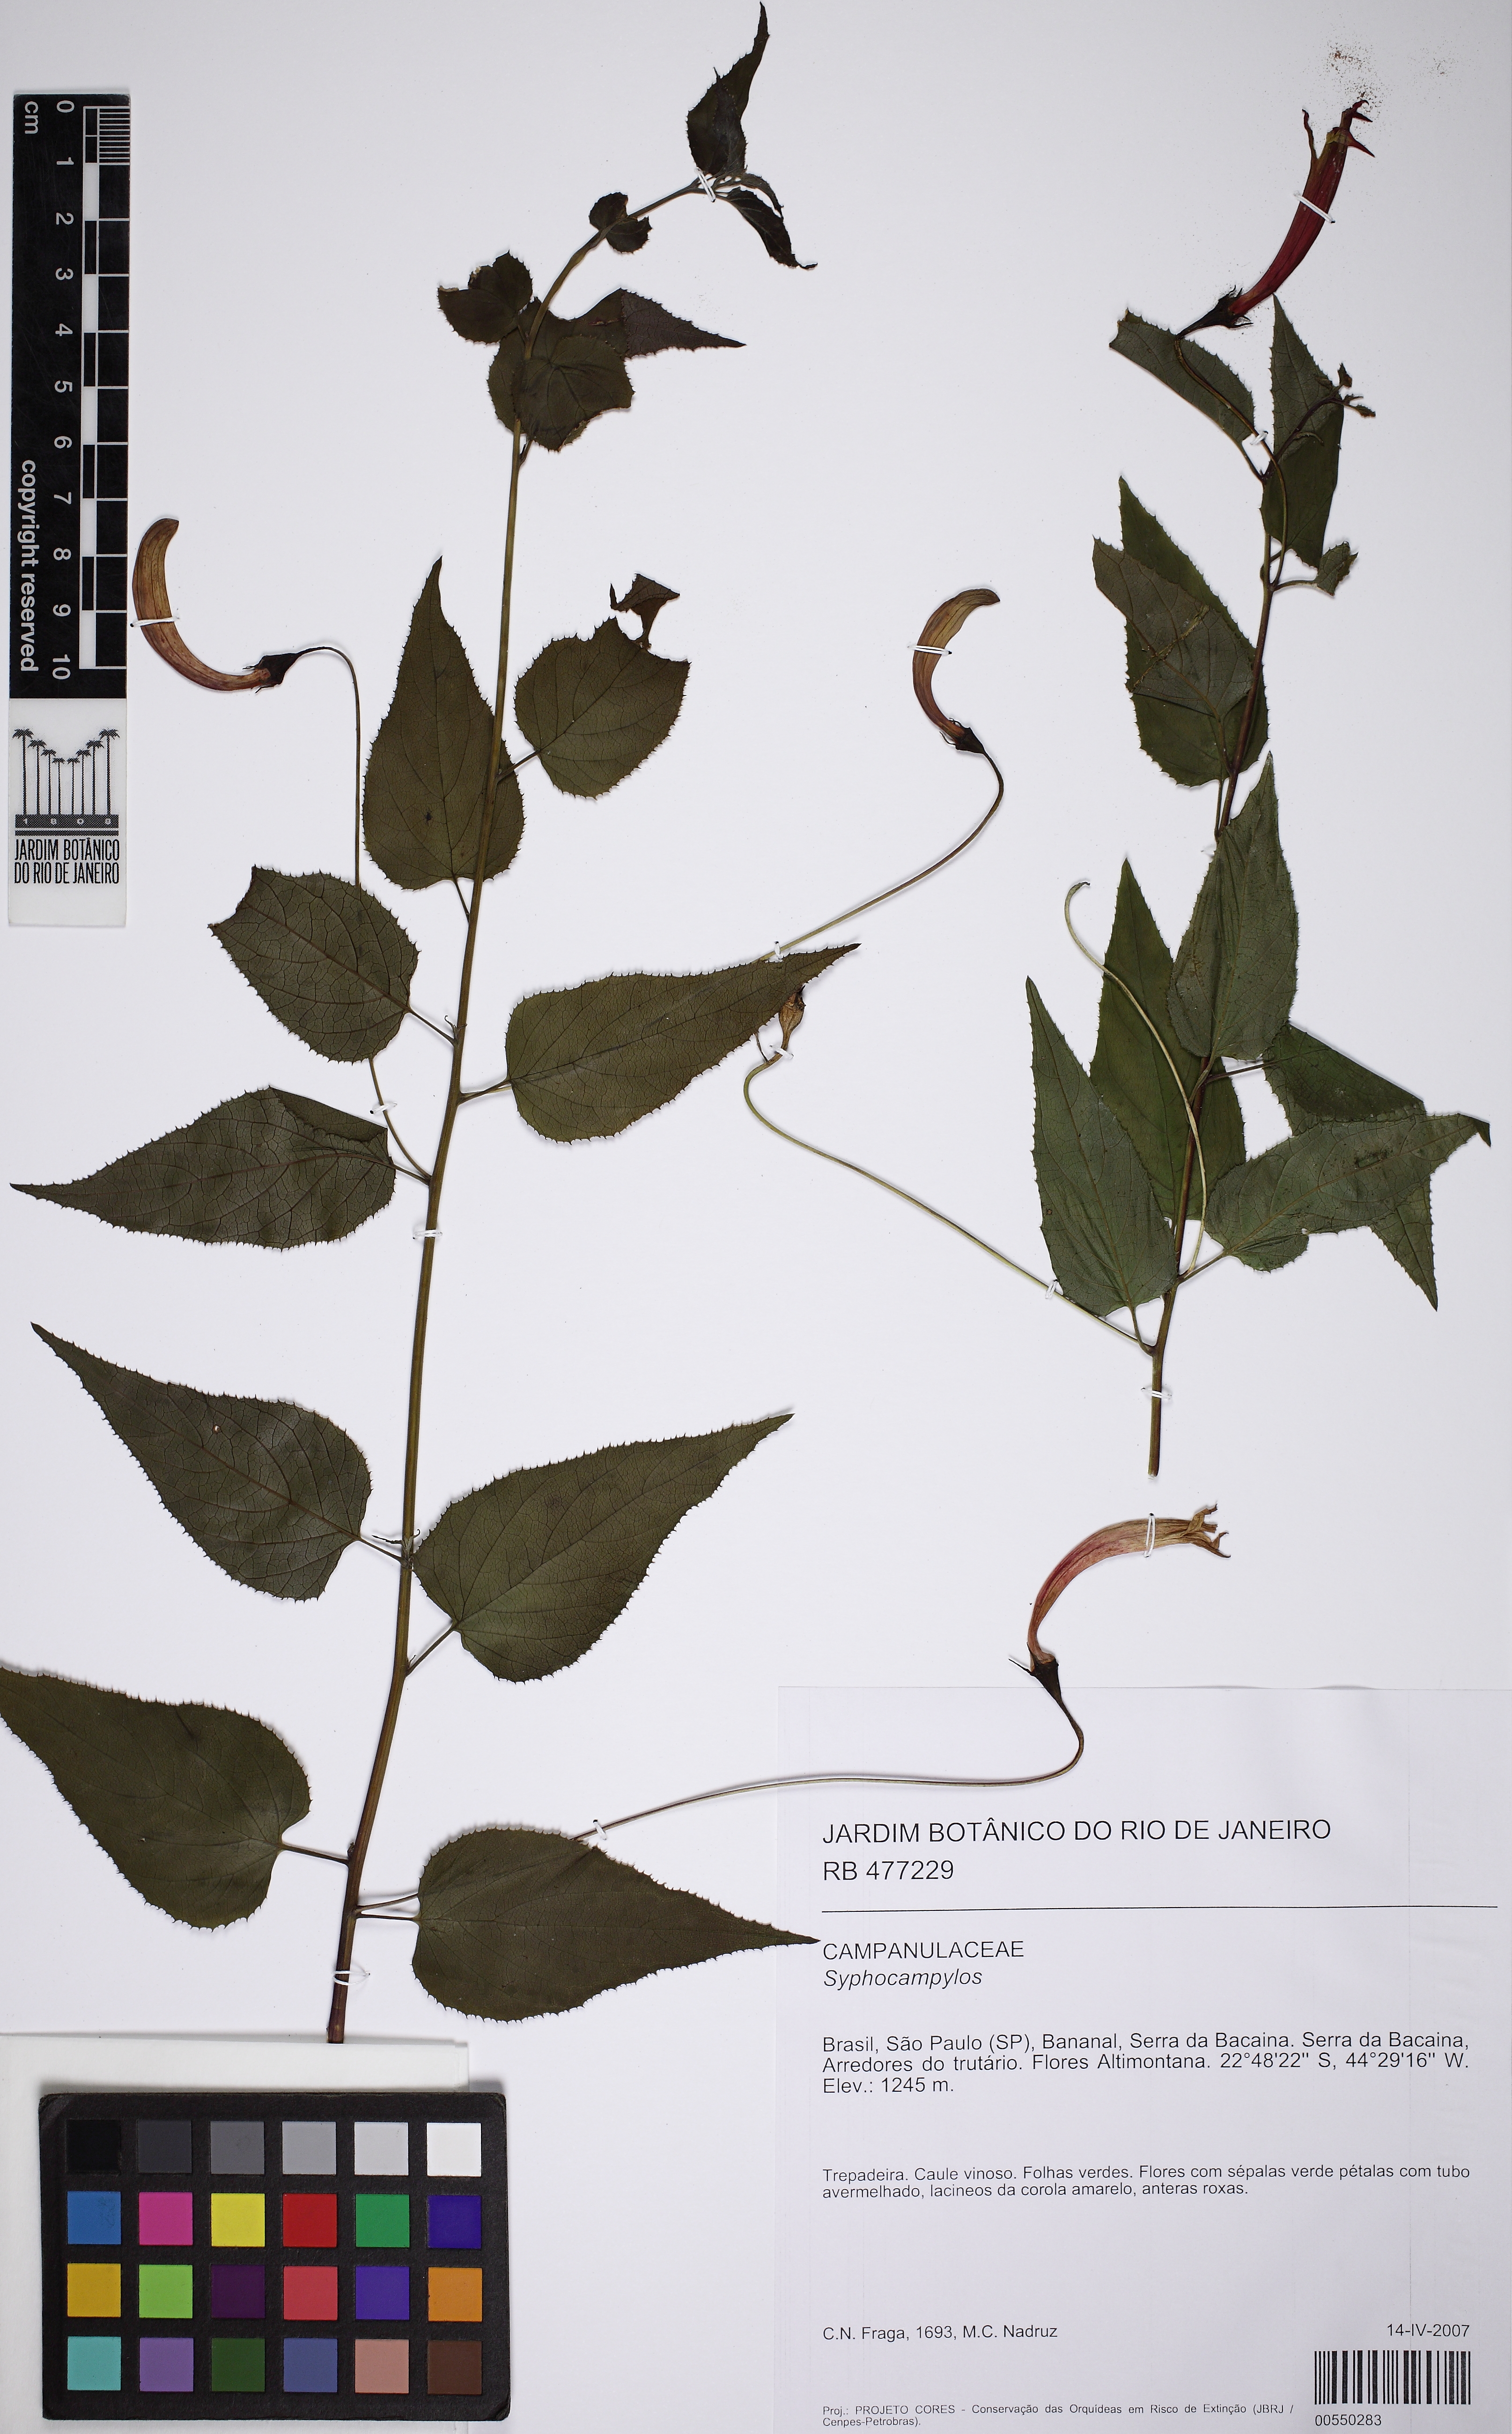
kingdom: Plantae
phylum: Tracheophyta
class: Magnoliopsida
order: Asterales
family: Campanulaceae
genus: Siphocampylus
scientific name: Siphocampylus longipedunculatus
